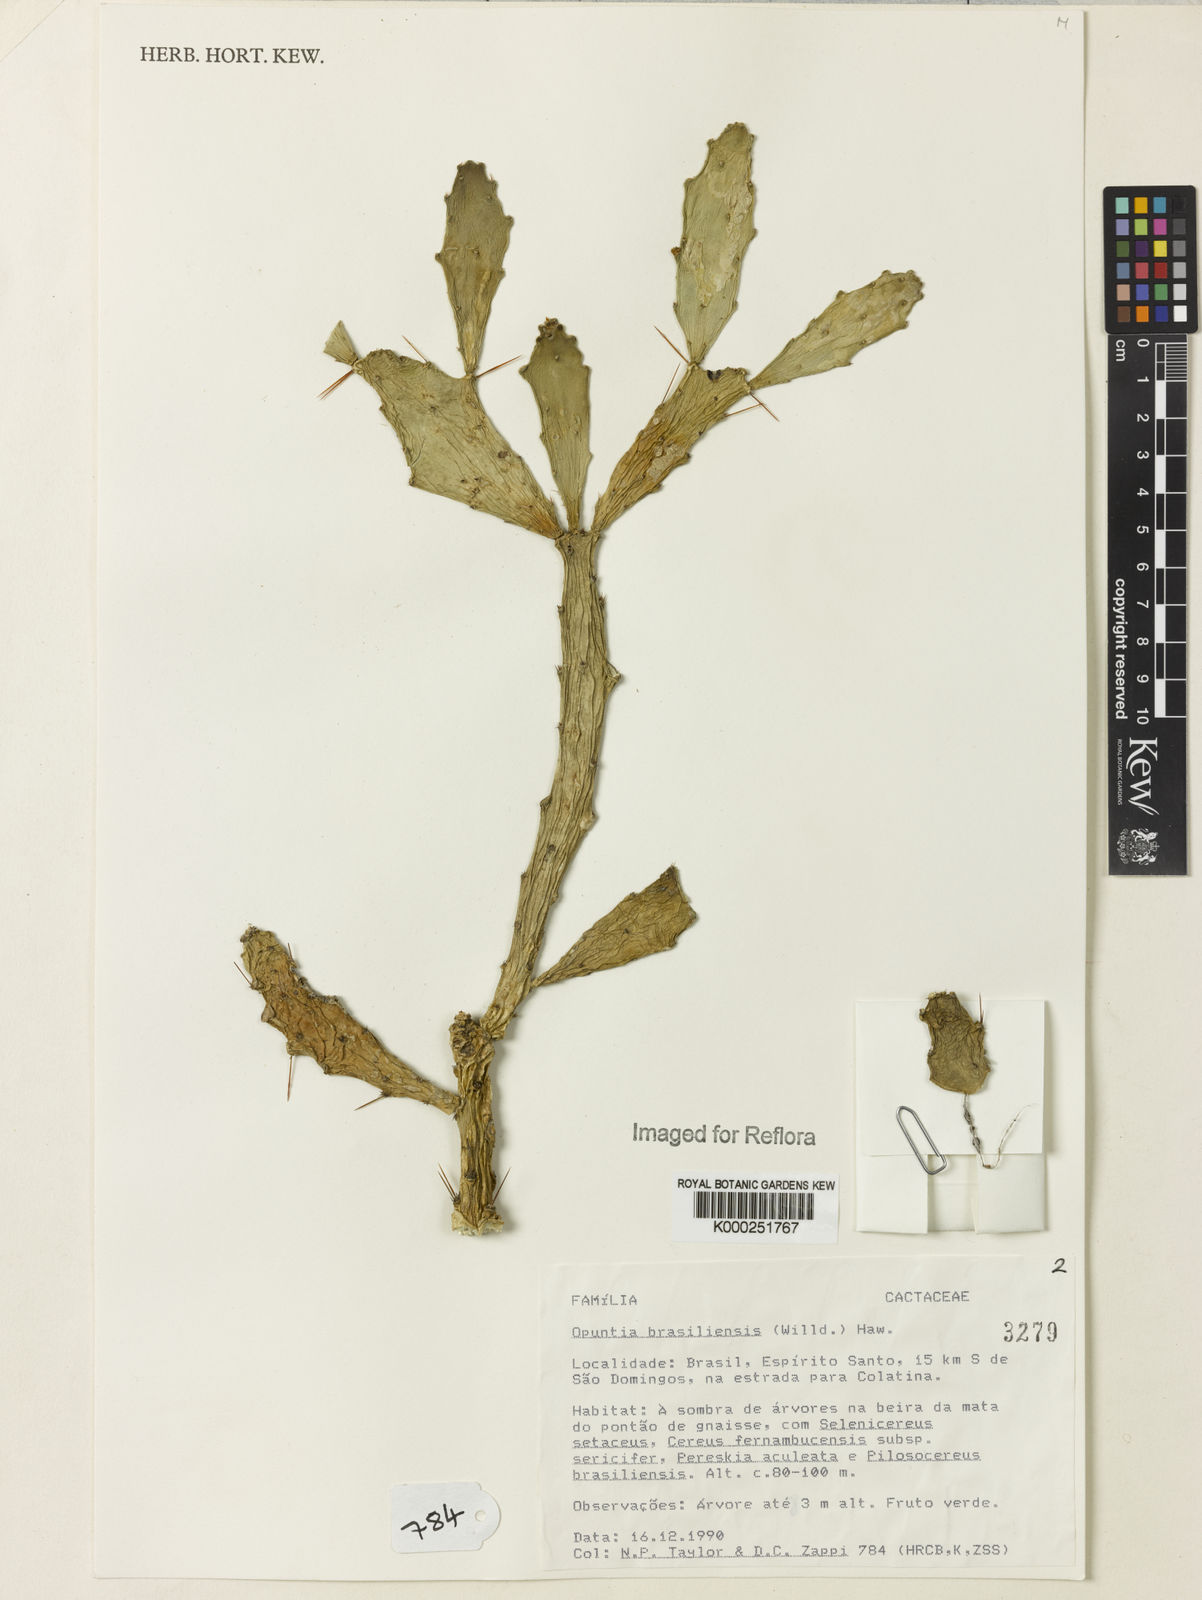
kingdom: Plantae
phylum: Tracheophyta
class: Magnoliopsida
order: Caryophyllales
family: Cactaceae
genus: Brasiliopuntia
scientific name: Brasiliopuntia brasiliensis
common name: Brazilian pricklypear
